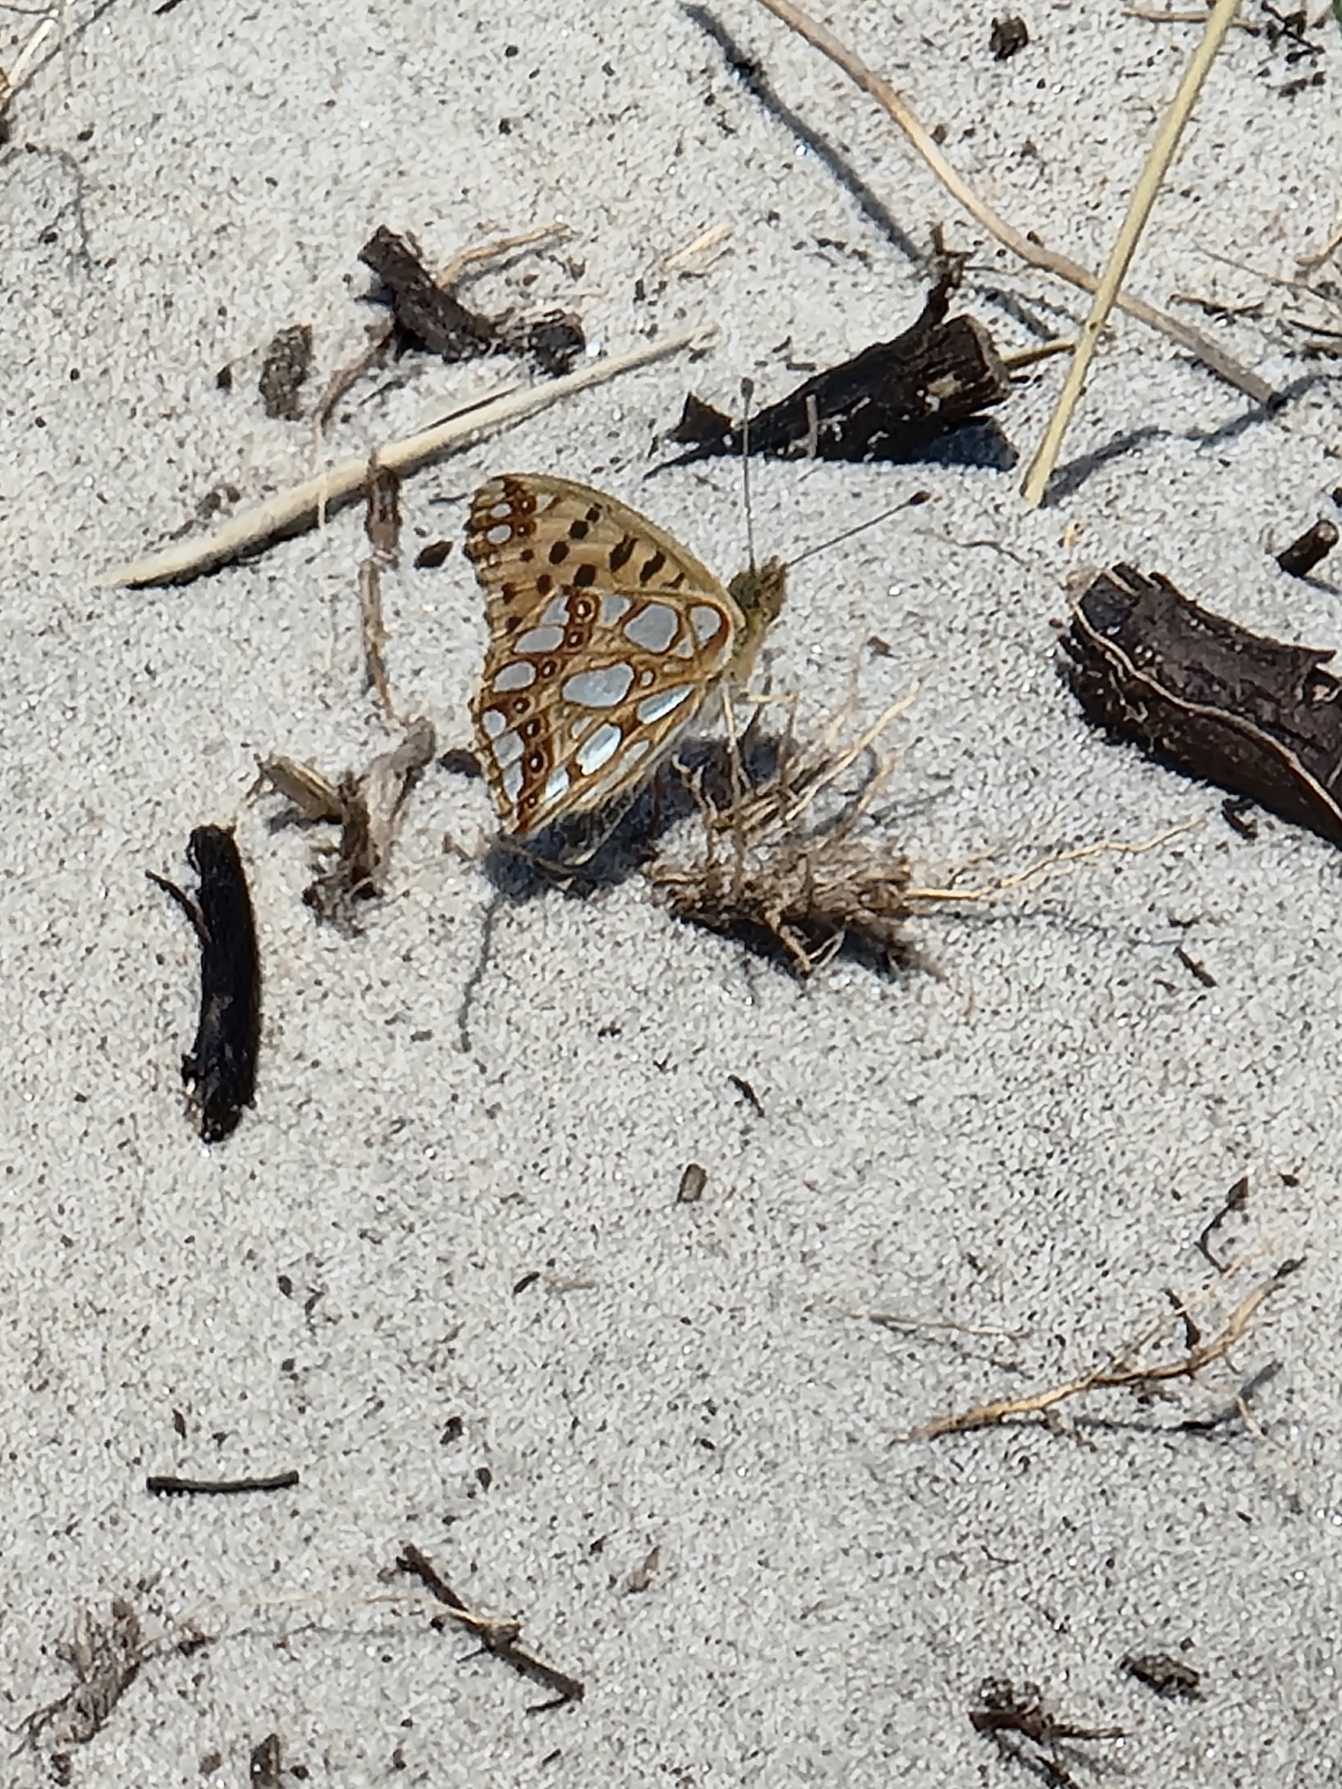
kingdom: Animalia
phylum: Arthropoda
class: Insecta
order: Lepidoptera
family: Nymphalidae
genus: Issoria
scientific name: Issoria lathonia
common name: Storplettet perlemorsommerfugl
